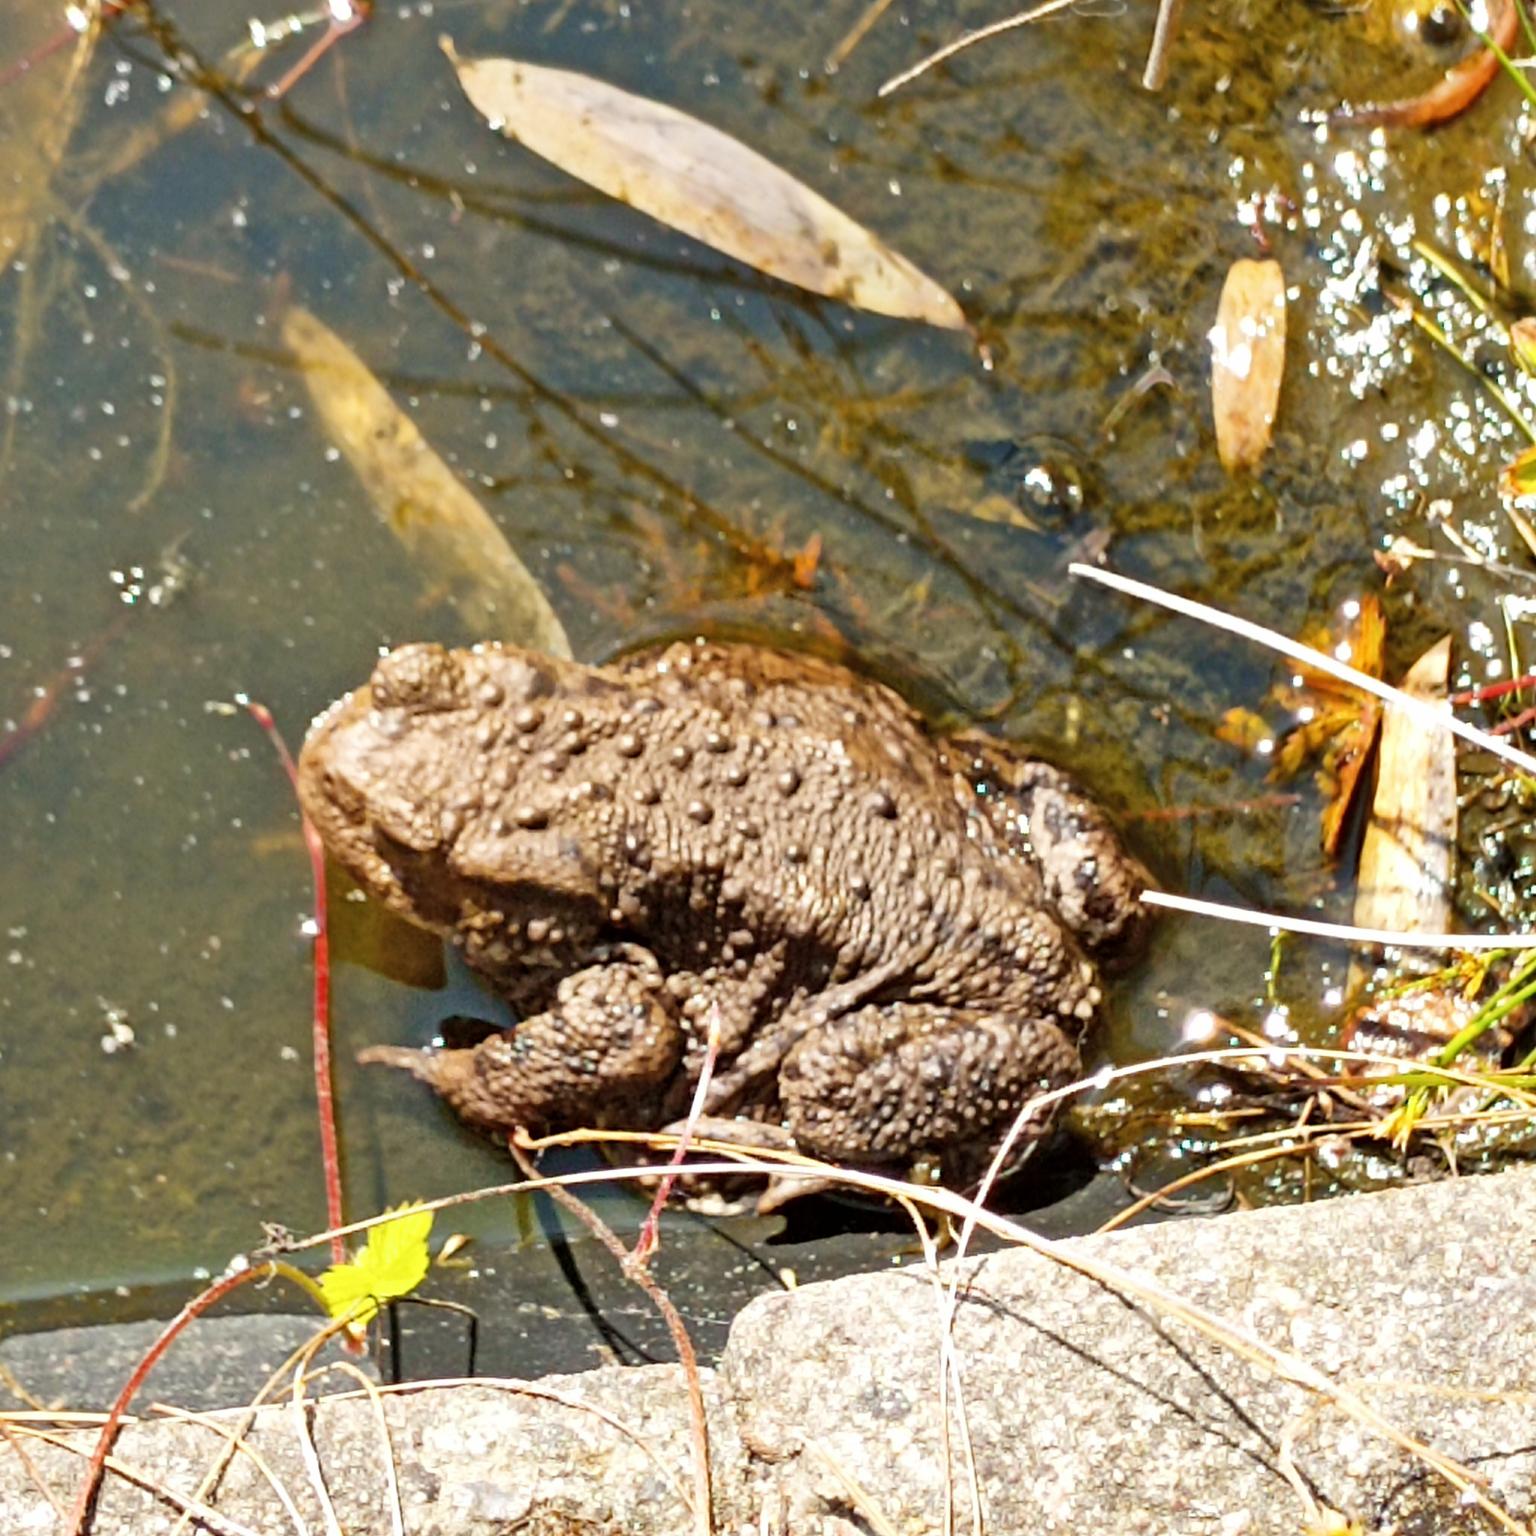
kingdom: Animalia
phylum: Chordata
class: Amphibia
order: Anura
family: Bufonidae
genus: Bufo
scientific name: Bufo bufo
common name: Skrubtudse
